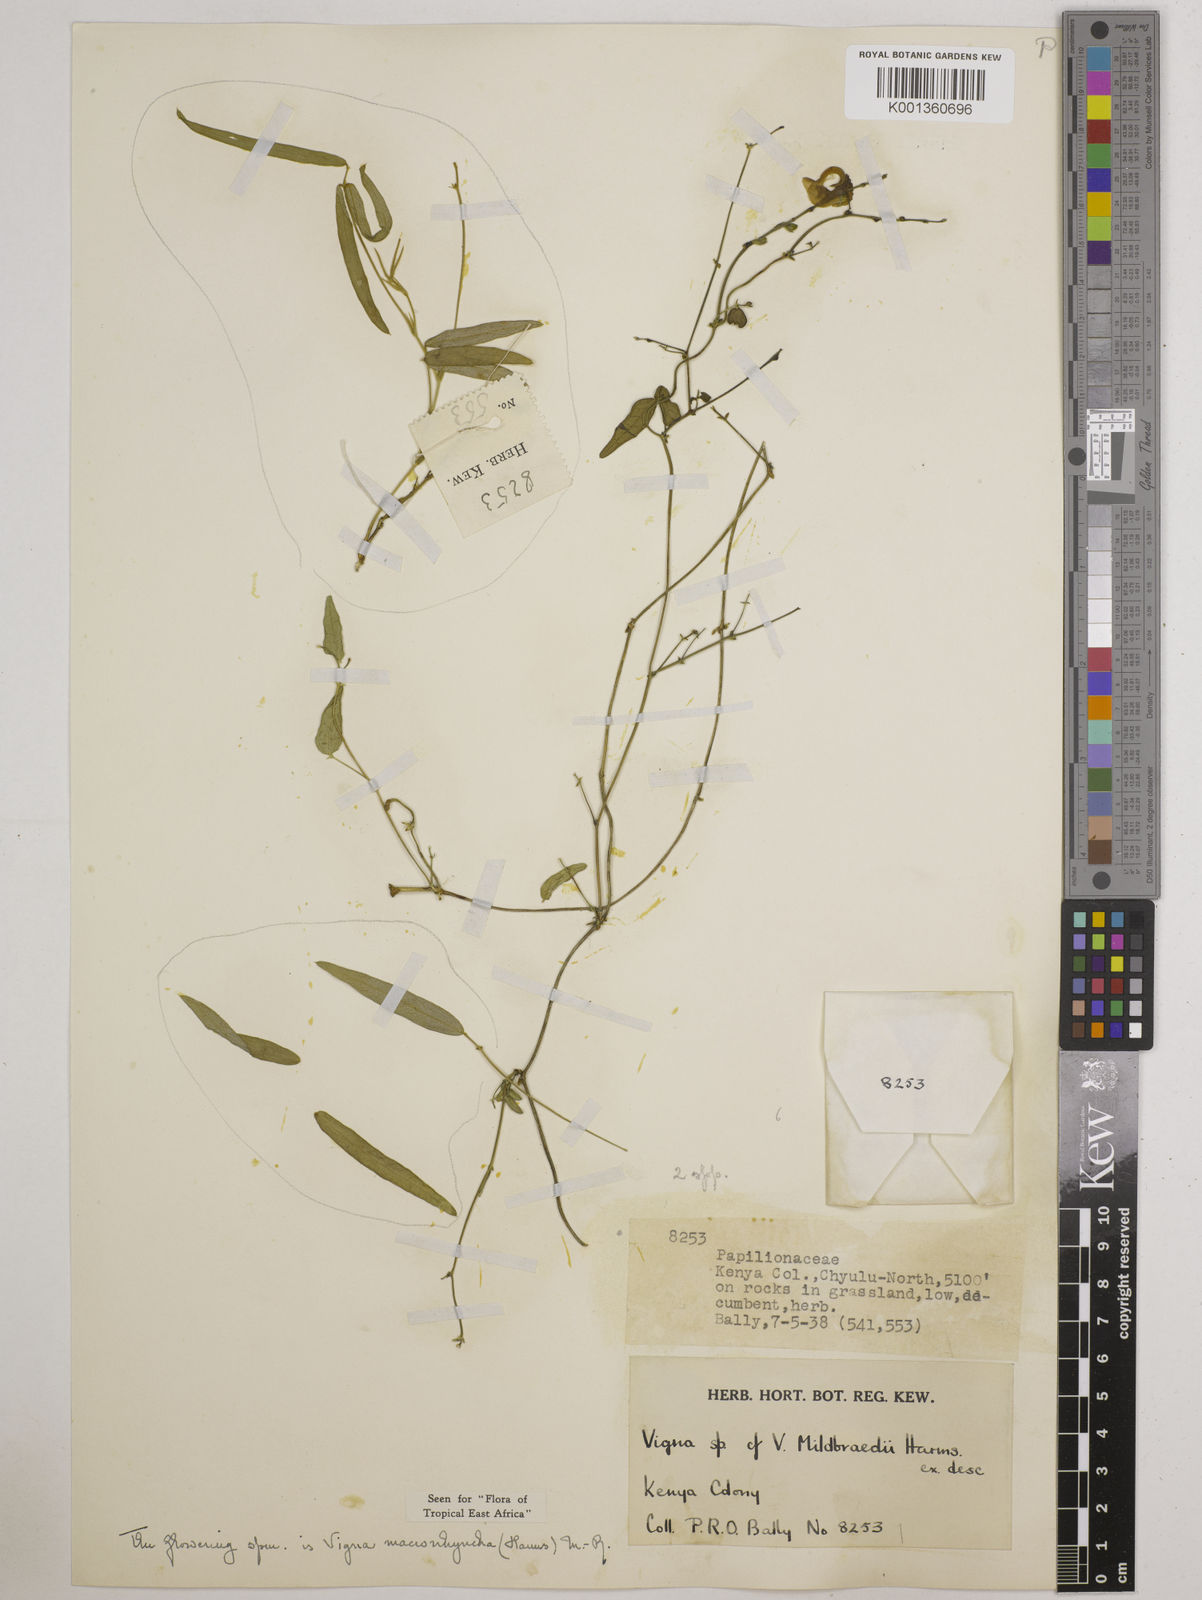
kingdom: Plantae
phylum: Tracheophyta
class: Magnoliopsida
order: Fabales
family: Fabaceae
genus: Wajira
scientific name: Wajira grahamiana
